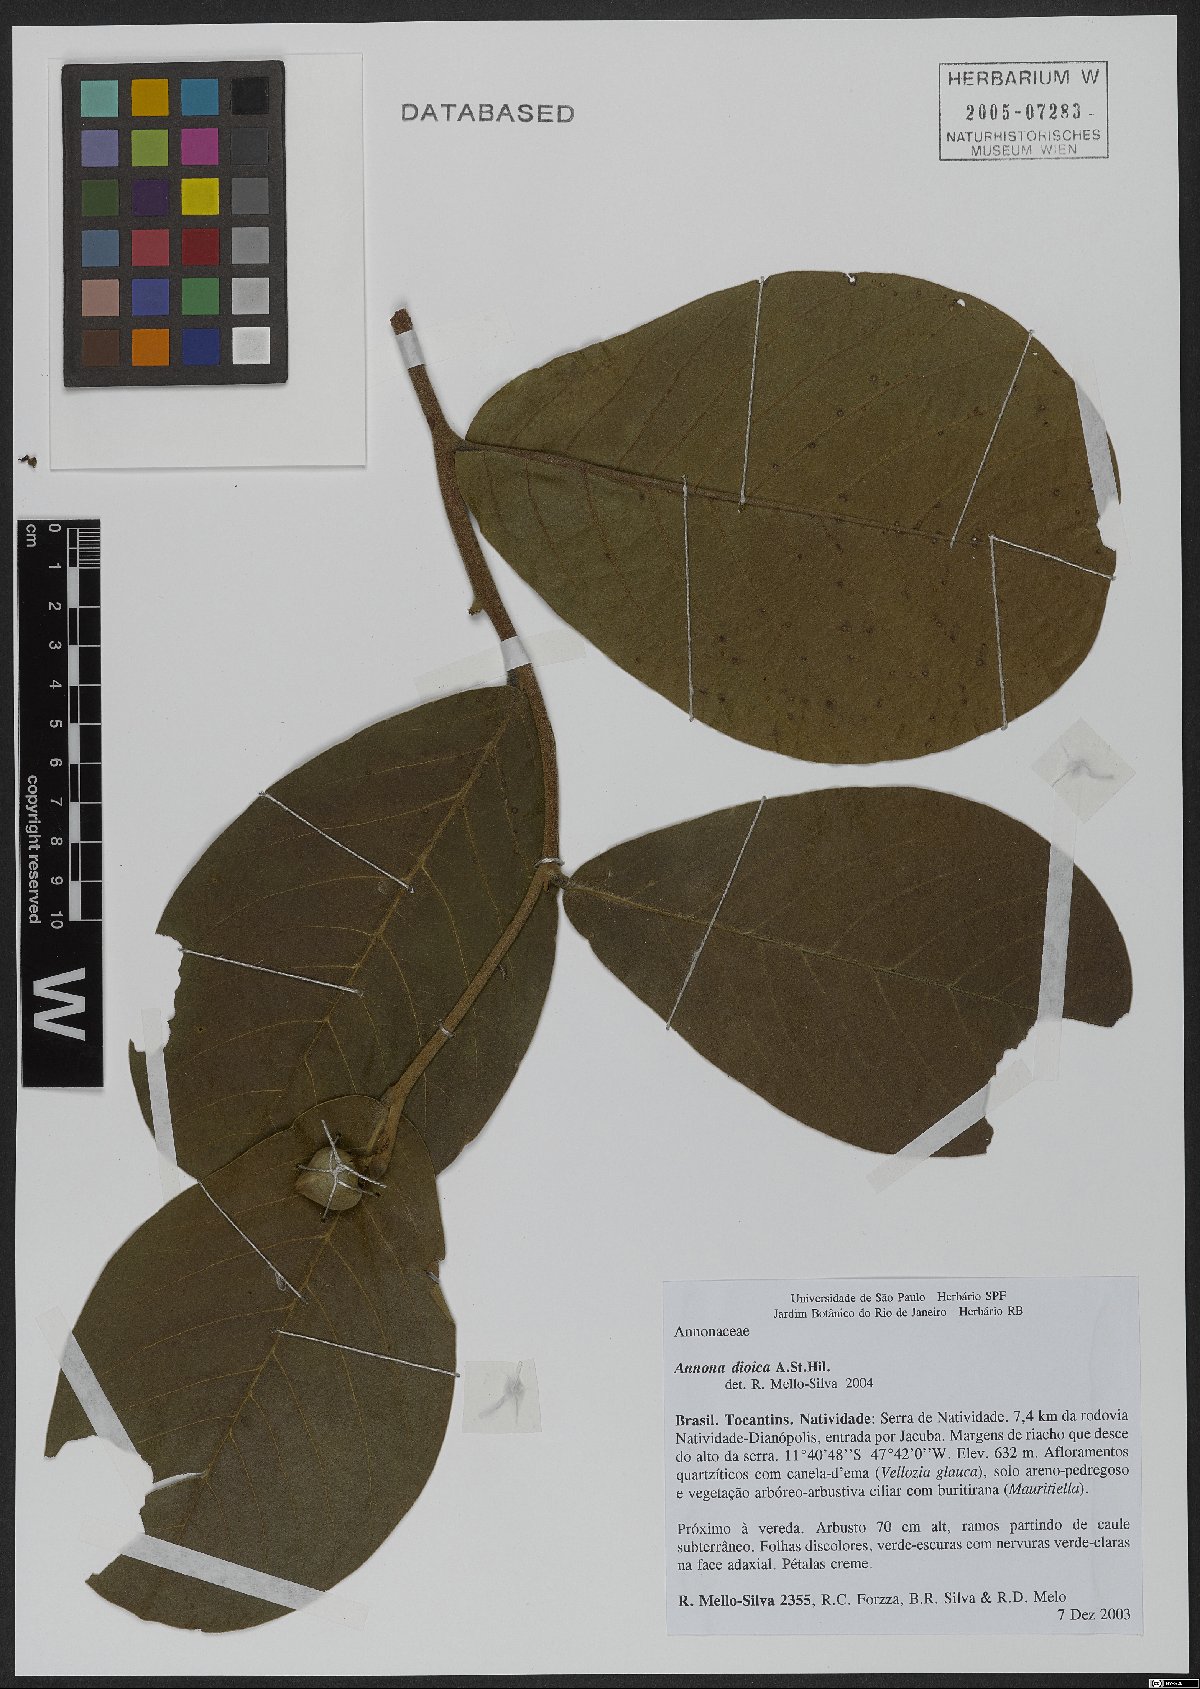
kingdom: Plantae
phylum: Tracheophyta
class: Magnoliopsida
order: Magnoliales
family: Annonaceae
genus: Annona
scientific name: Annona dioica
